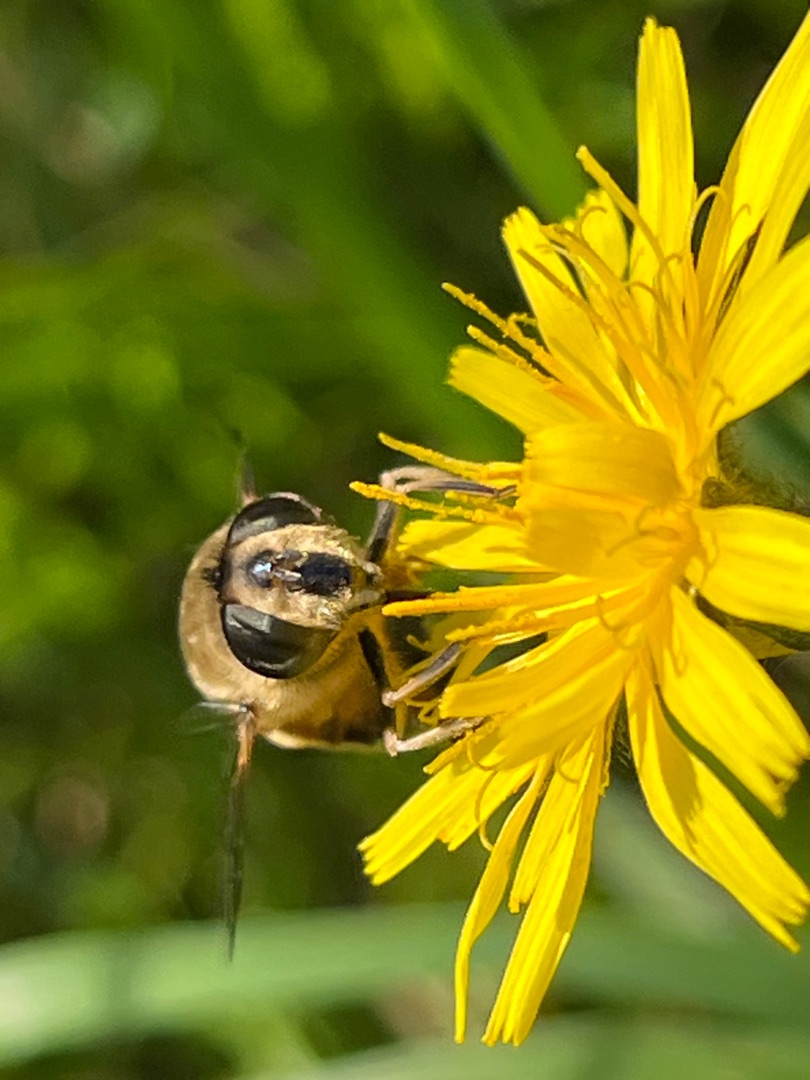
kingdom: Animalia
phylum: Arthropoda
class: Insecta
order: Diptera
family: Syrphidae
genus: Eristalis
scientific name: Eristalis tenax
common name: Droneflue
